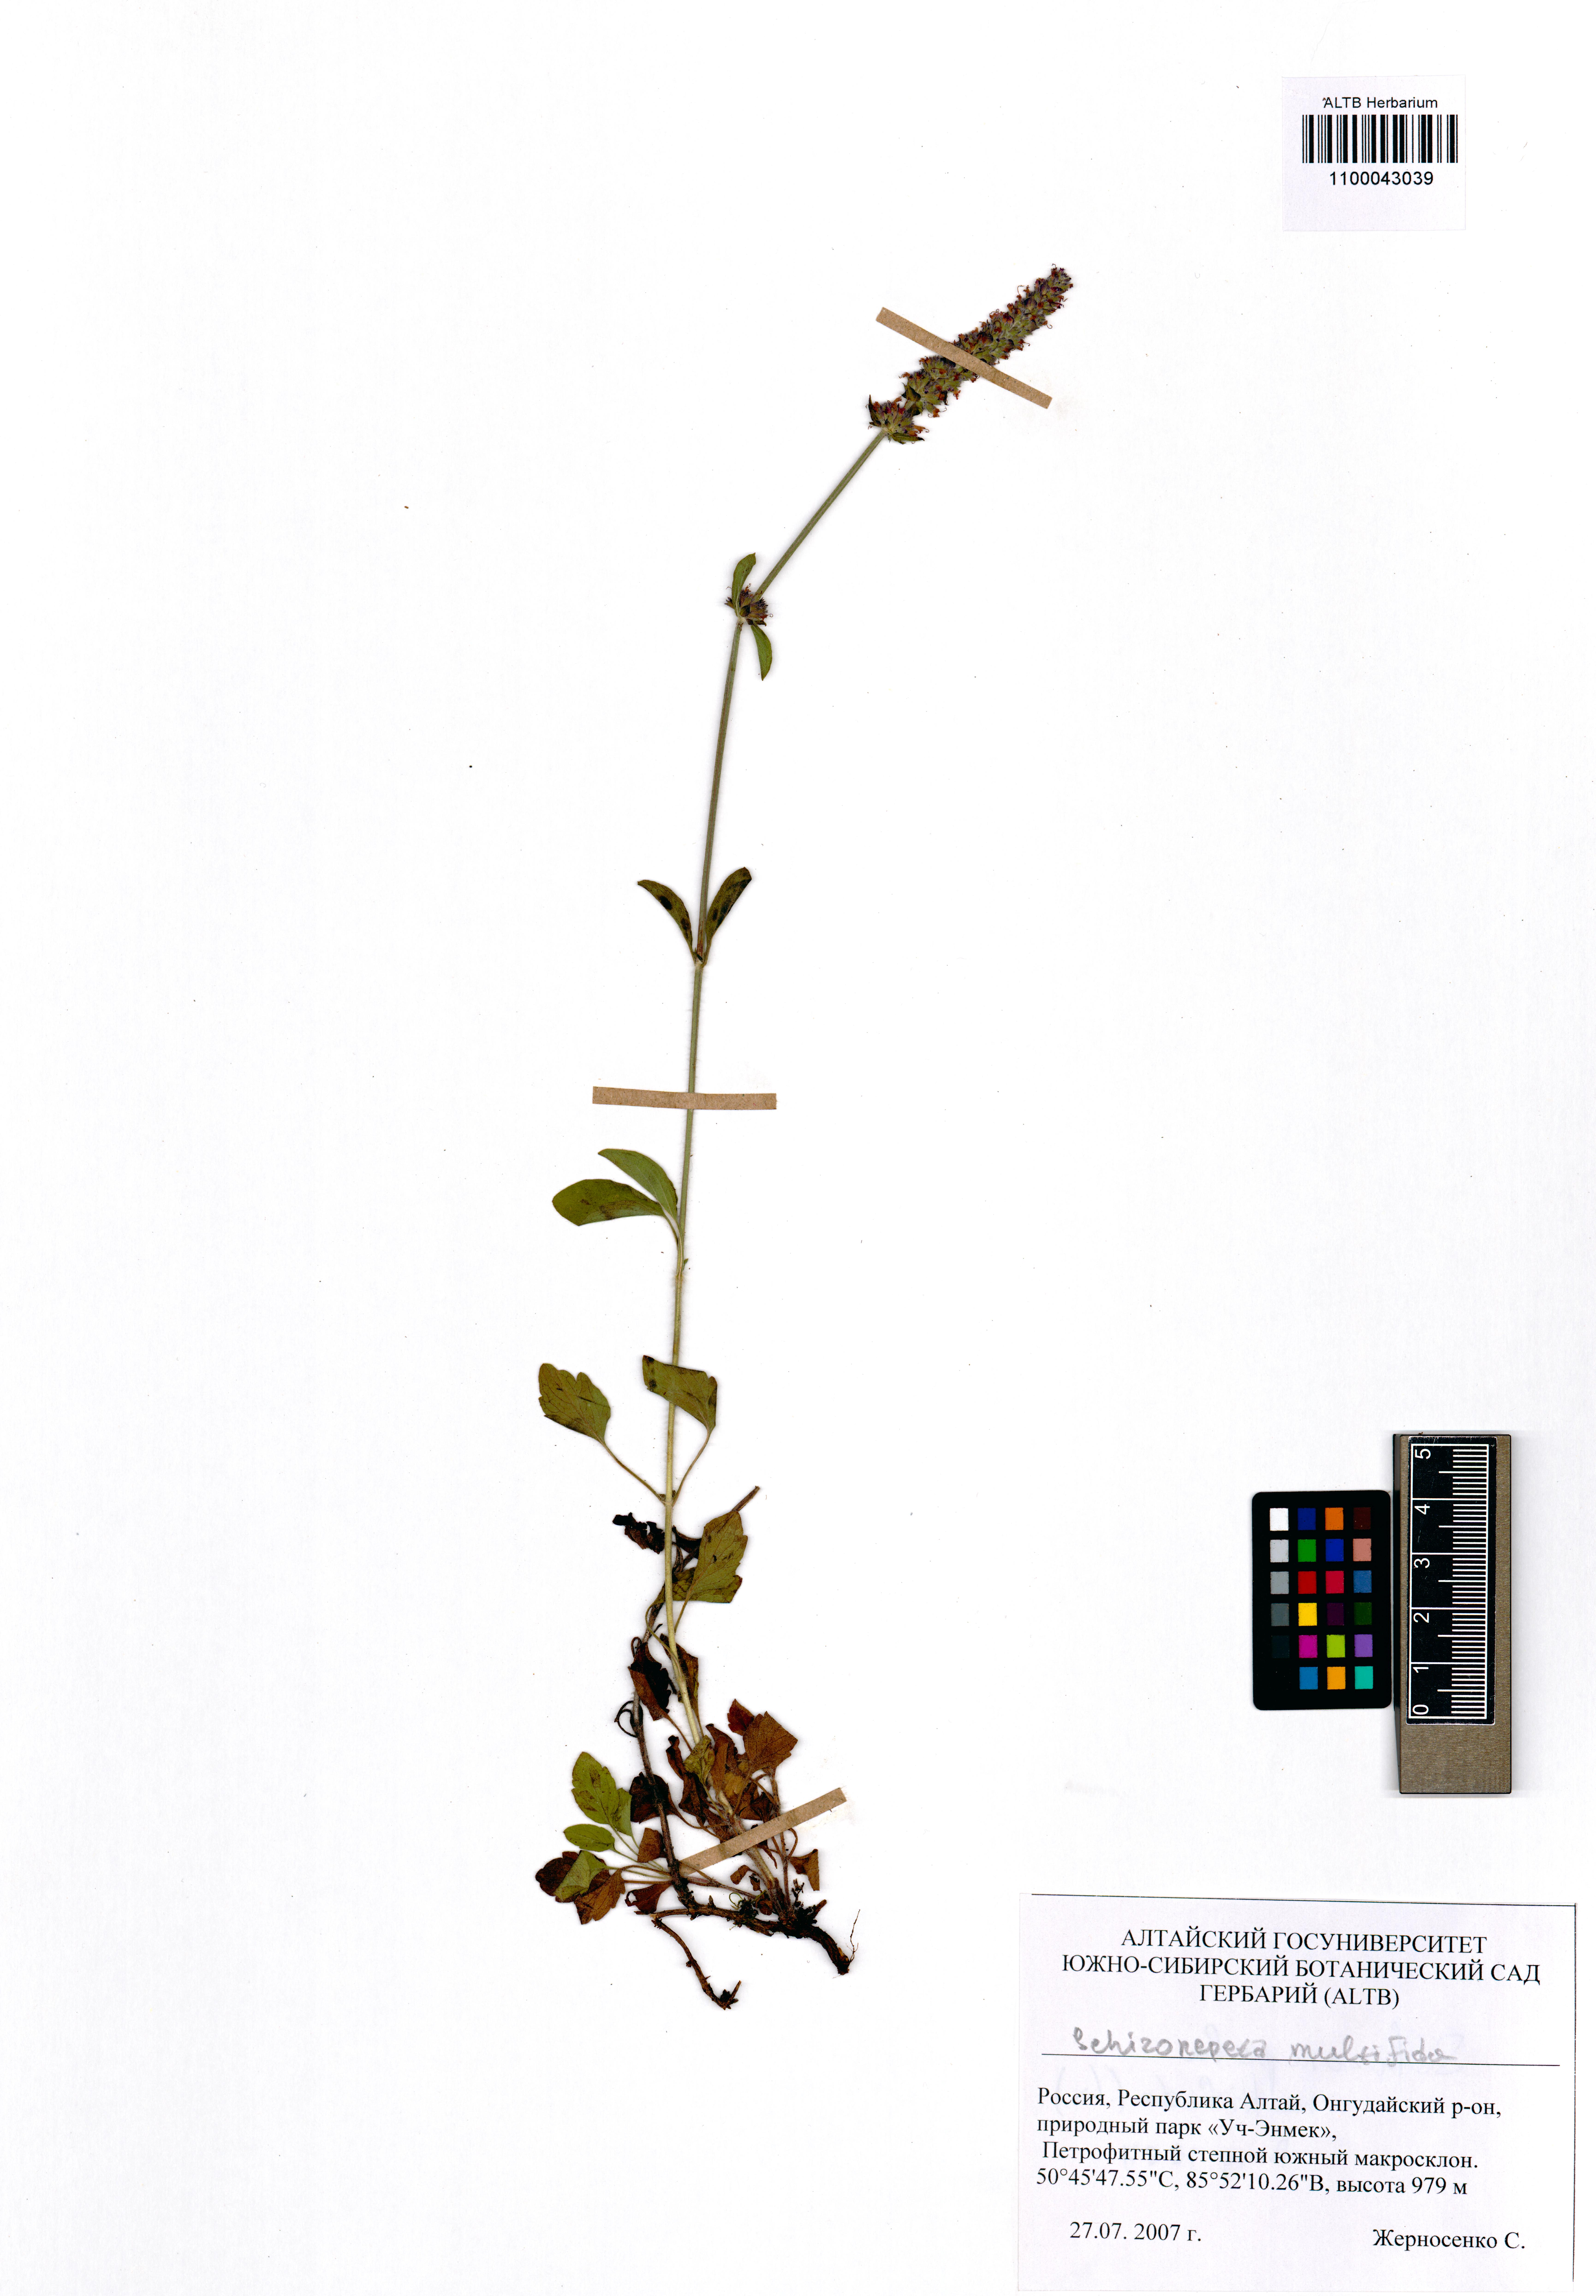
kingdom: Plantae
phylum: Tracheophyta
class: Magnoliopsida
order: Lamiales
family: Lamiaceae
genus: Nepeta
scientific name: Nepeta multifida
